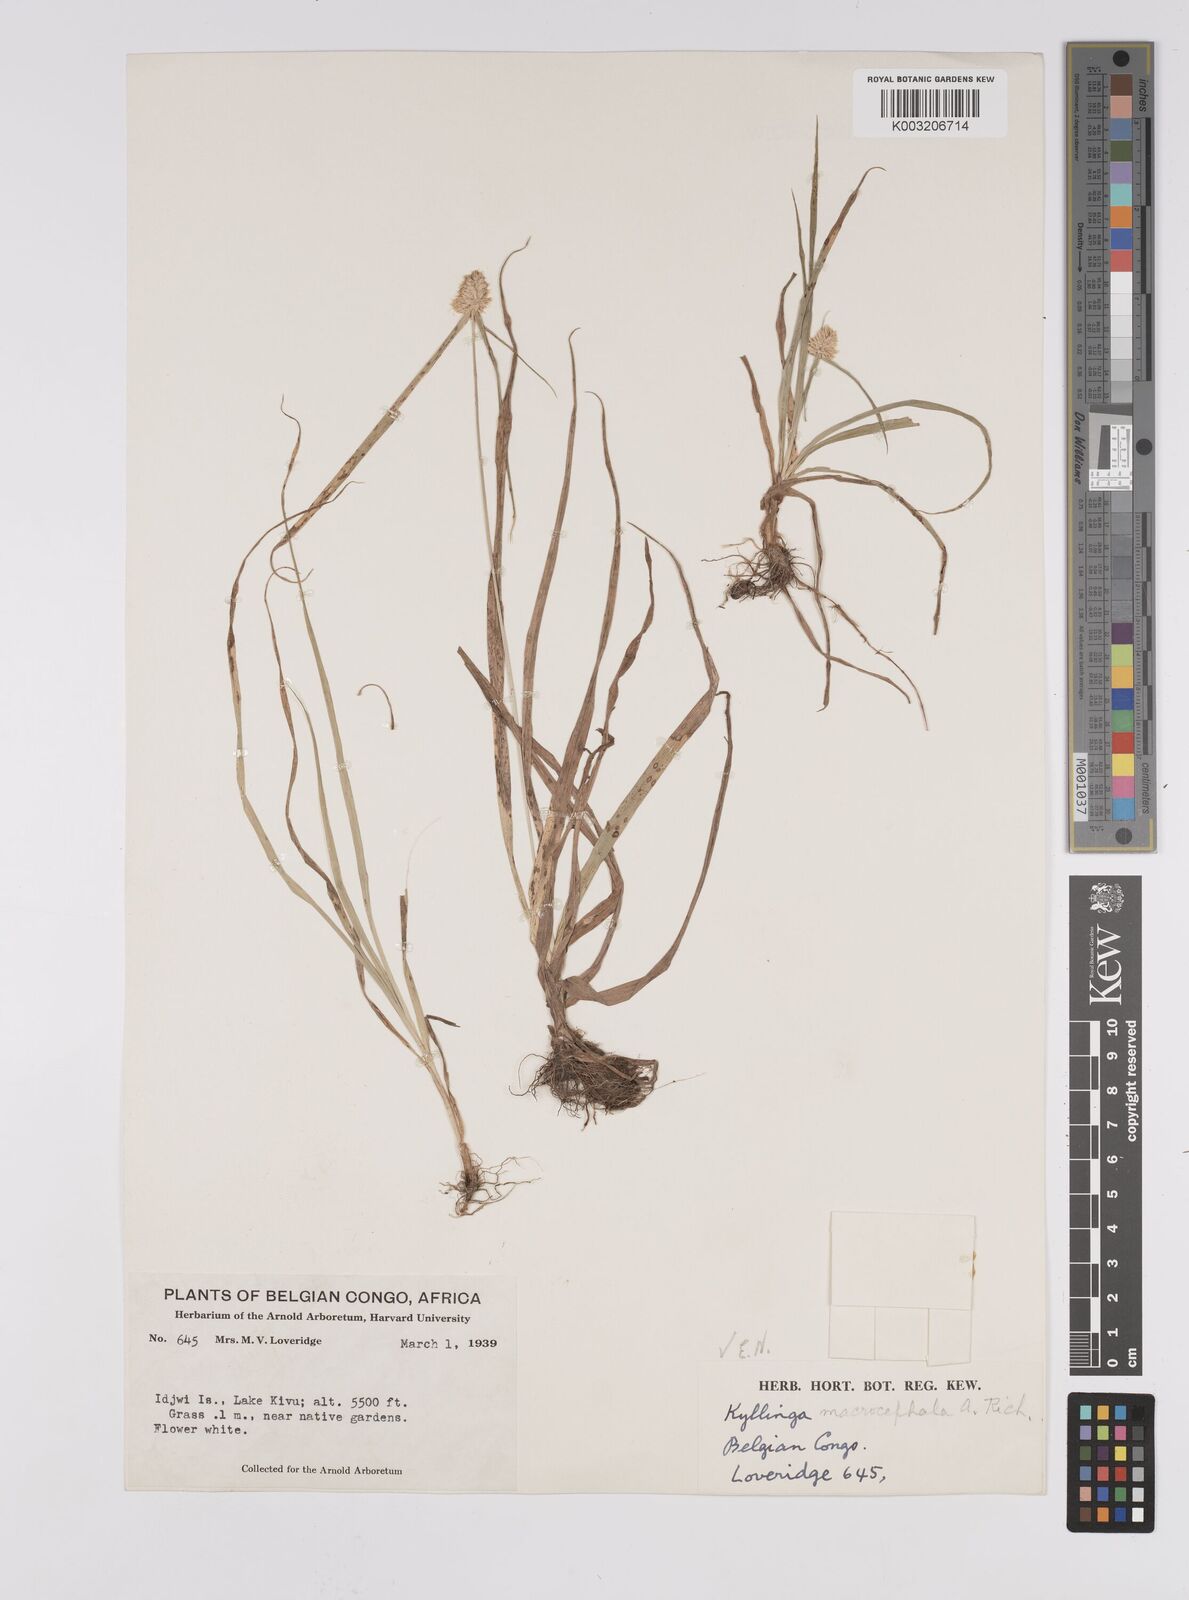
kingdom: Plantae
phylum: Tracheophyta
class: Liliopsida
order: Poales
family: Cyperaceae
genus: Cyperus
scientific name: Cyperus conglobatus
